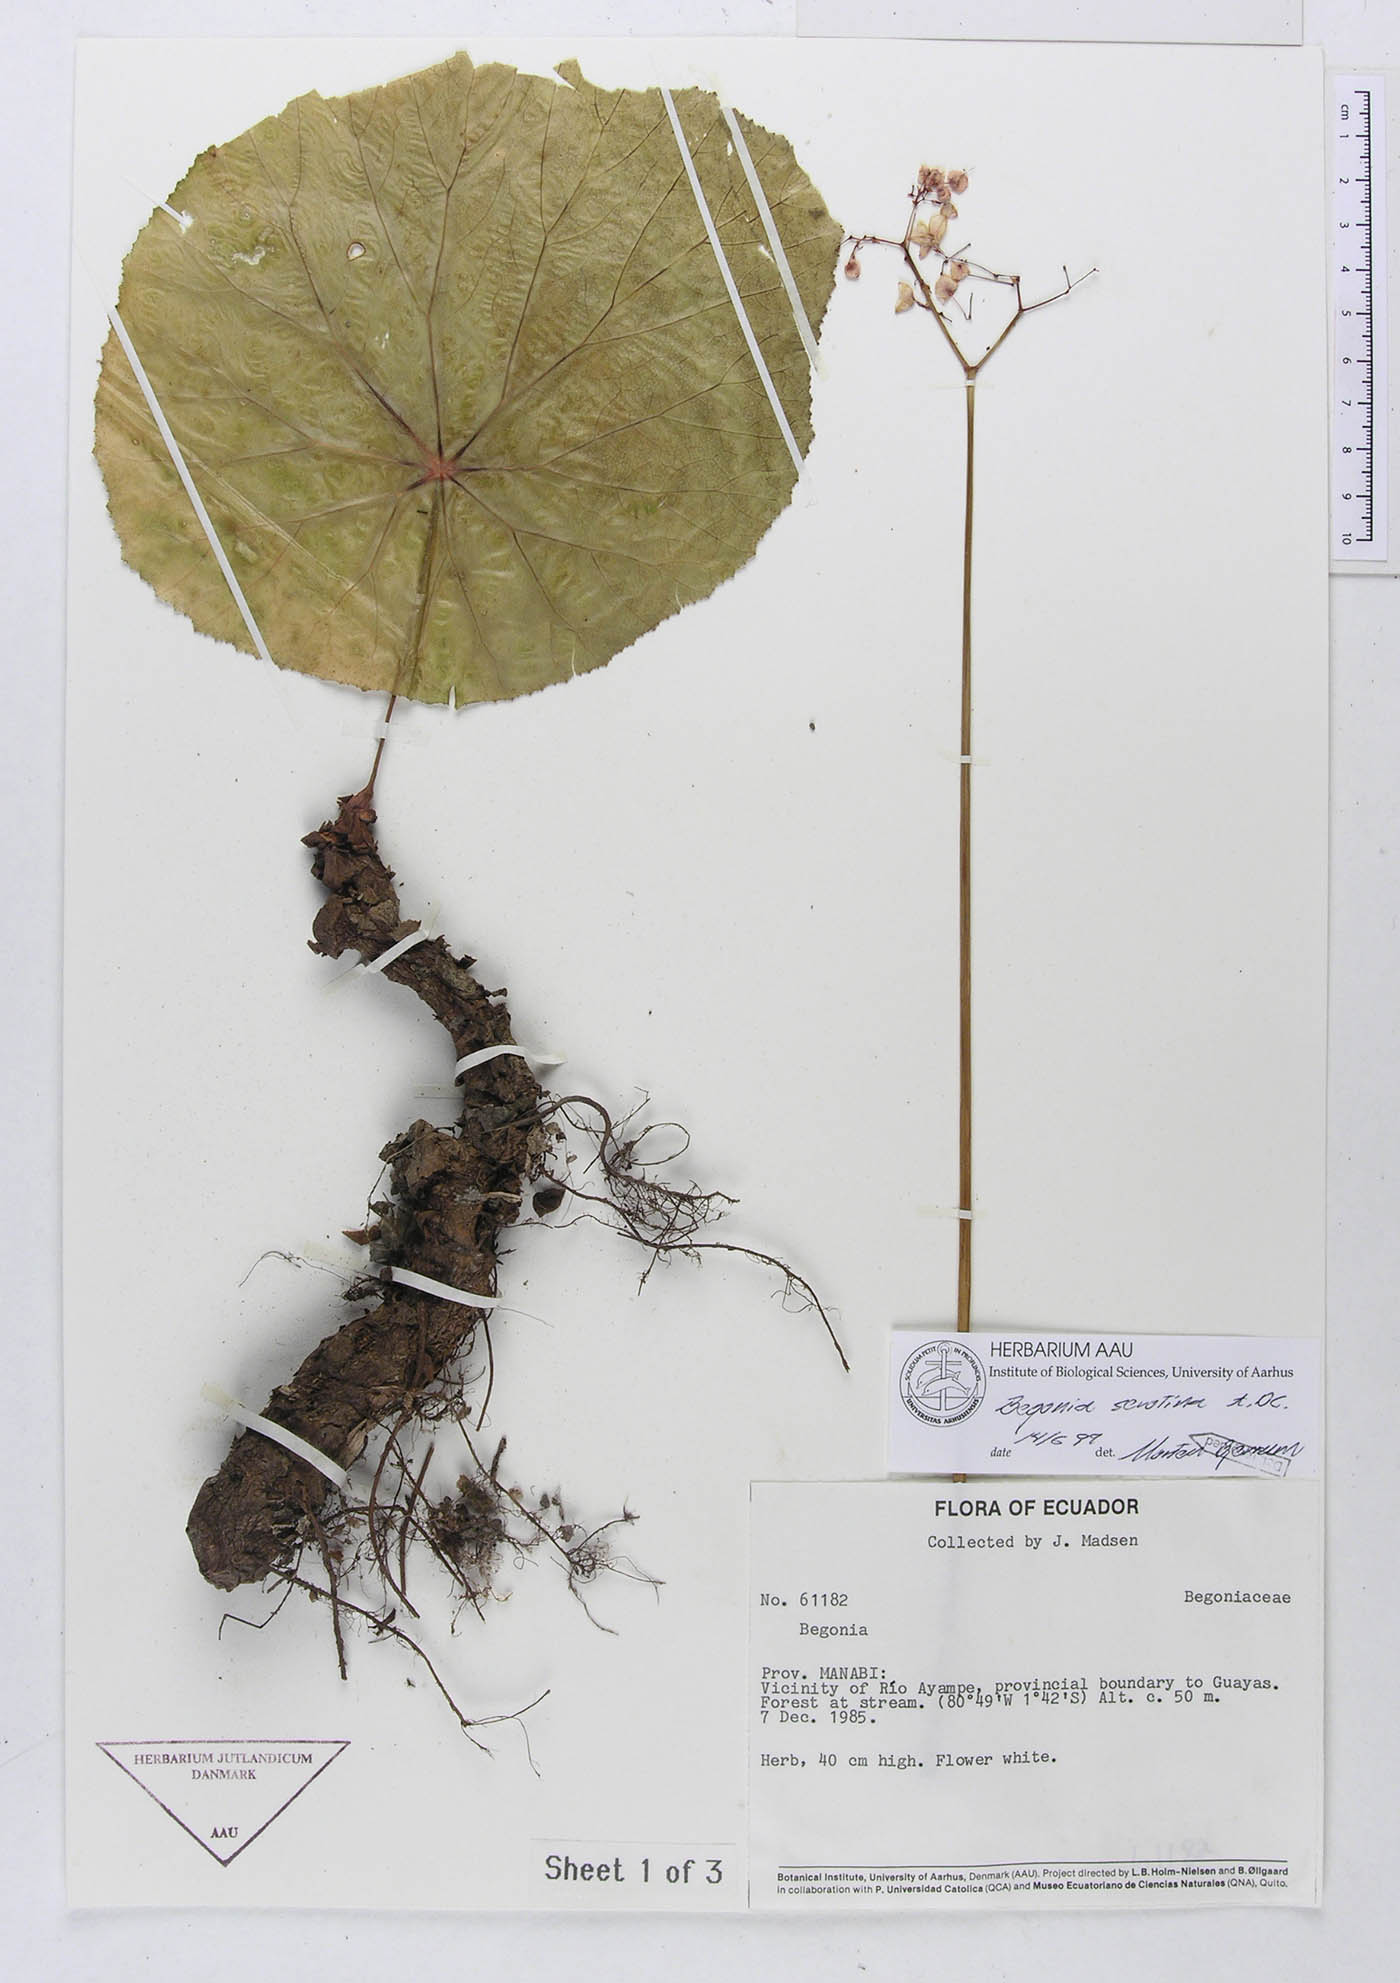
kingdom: Plantae
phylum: Tracheophyta
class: Magnoliopsida
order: Cucurbitales
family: Begoniaceae
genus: Begonia
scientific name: Begonia serotina
